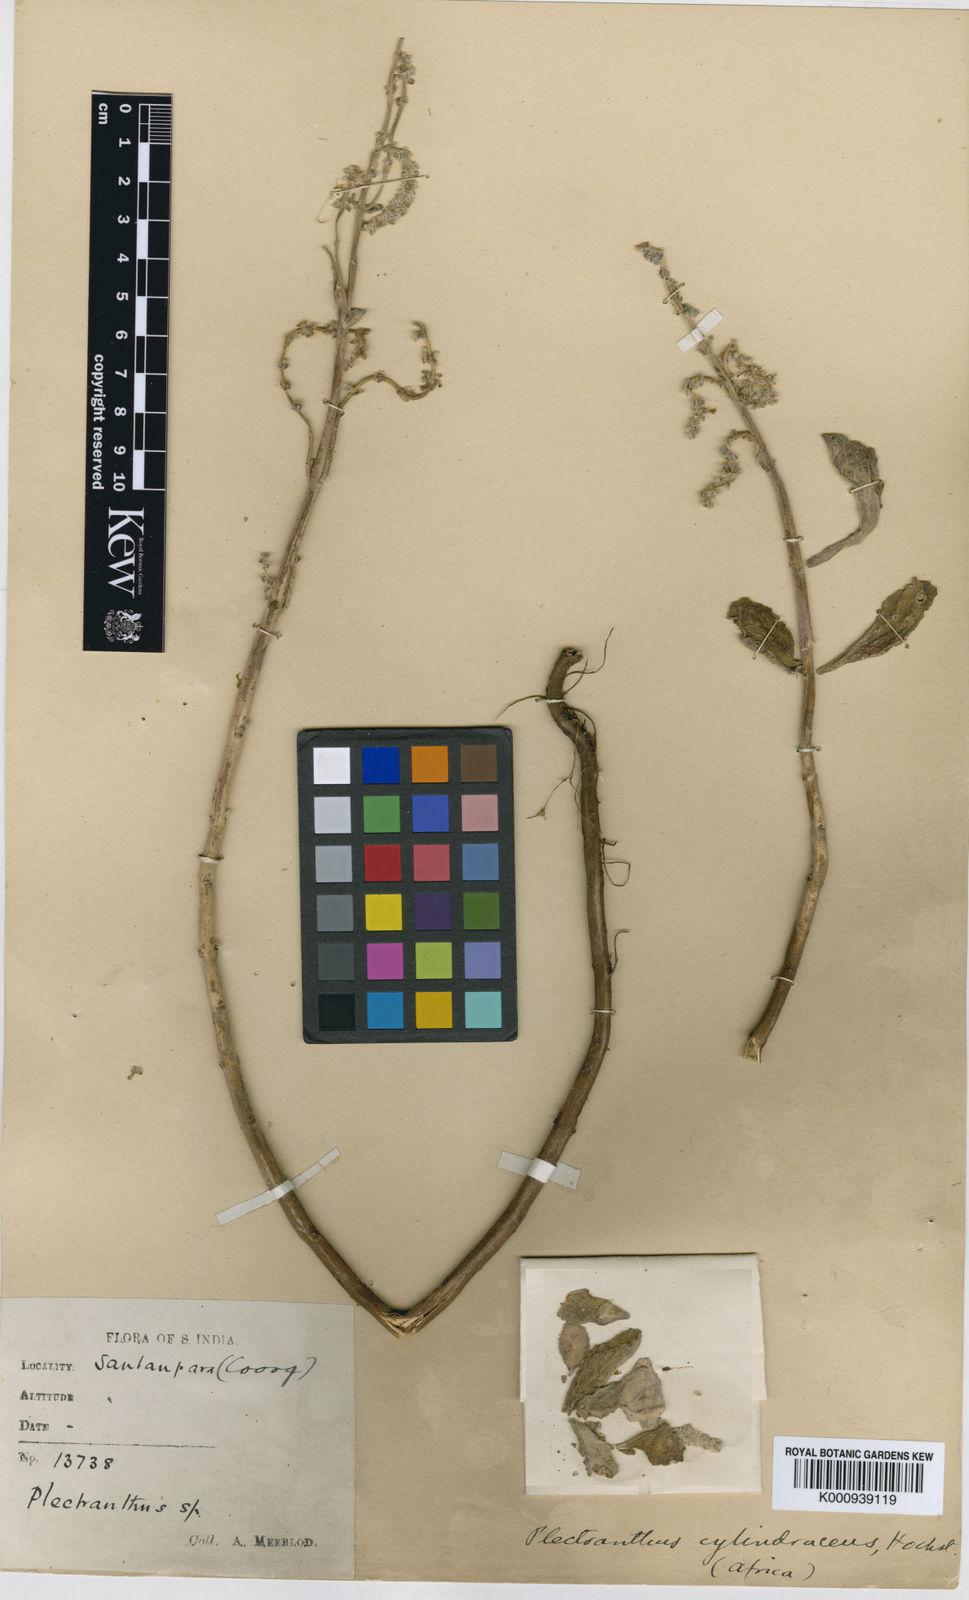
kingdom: Plantae
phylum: Tracheophyta
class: Magnoliopsida
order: Lamiales
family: Lamiaceae
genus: Coleus
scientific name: Coleus cylindraceus
